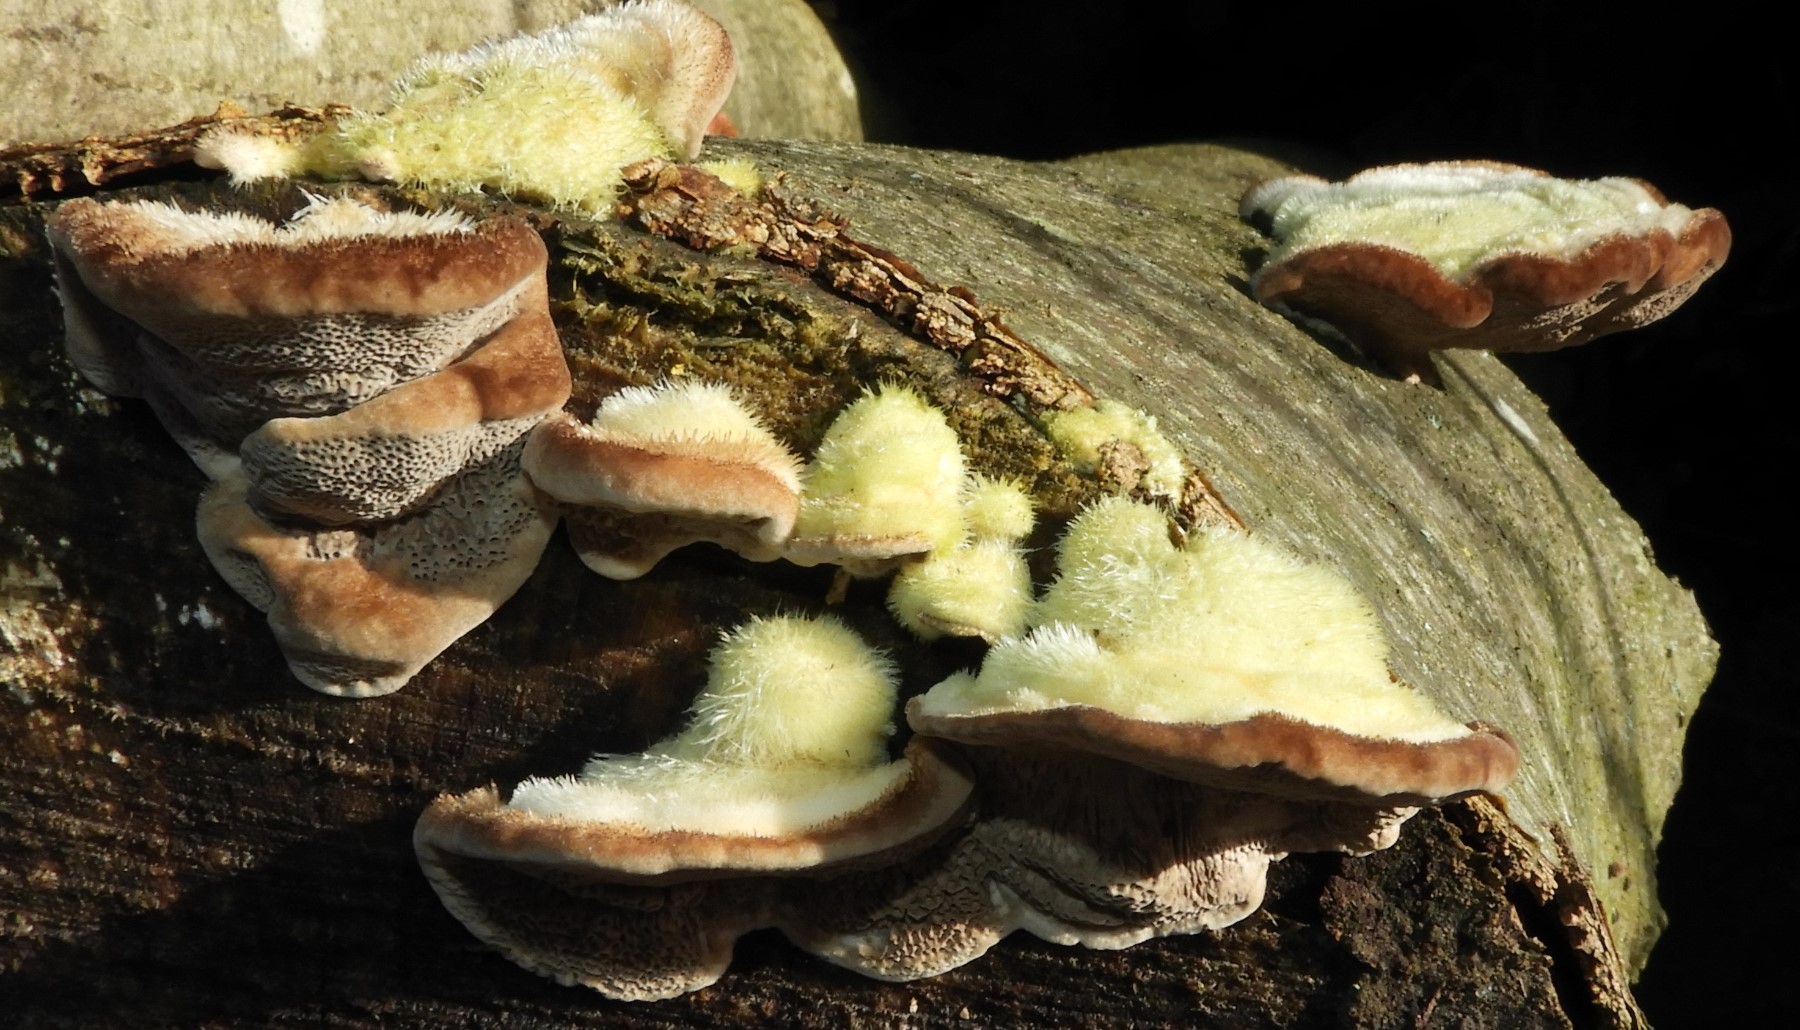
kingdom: Fungi
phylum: Basidiomycota
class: Agaricomycetes
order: Polyporales
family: Polyporaceae
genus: Trametes
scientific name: Trametes hirsuta
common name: håret læderporesvamp
